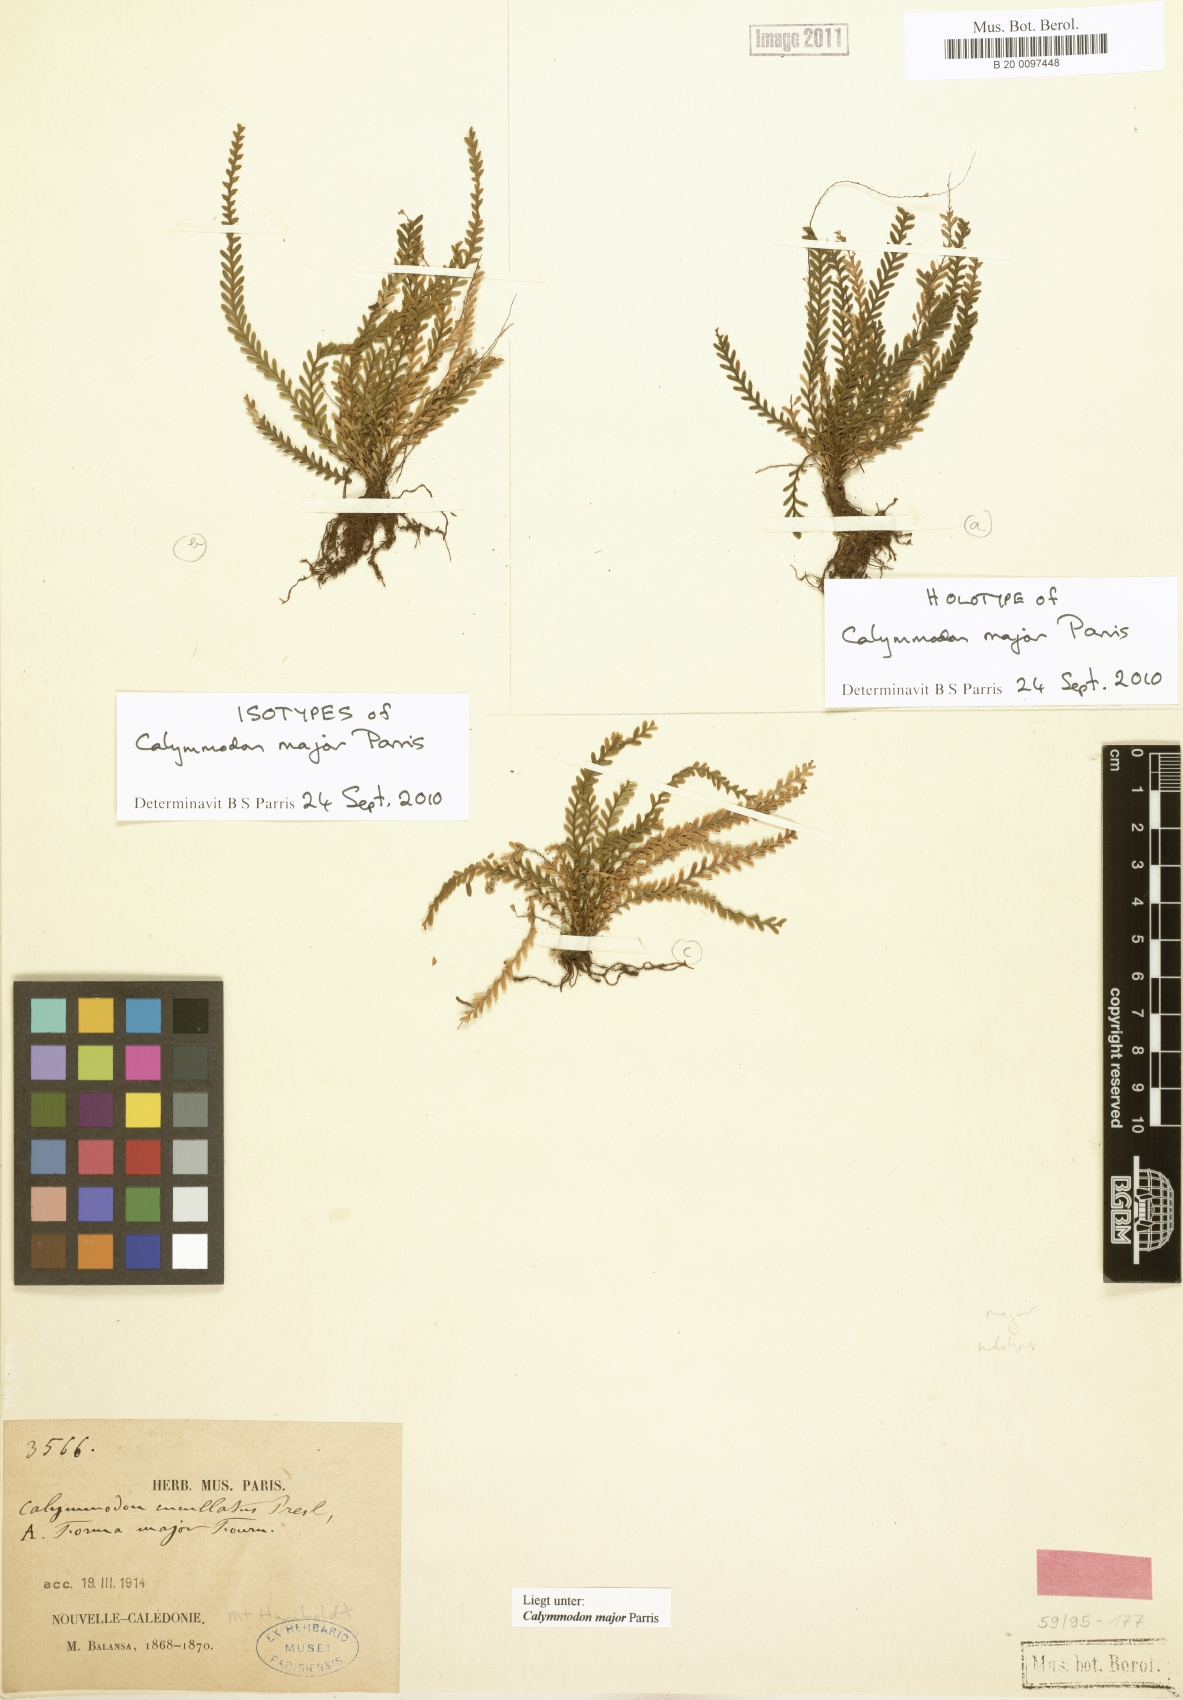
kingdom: Plantae
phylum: Tracheophyta
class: Polypodiopsida
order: Polypodiales
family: Polypodiaceae
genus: Calymmodon
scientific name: Calymmodon
